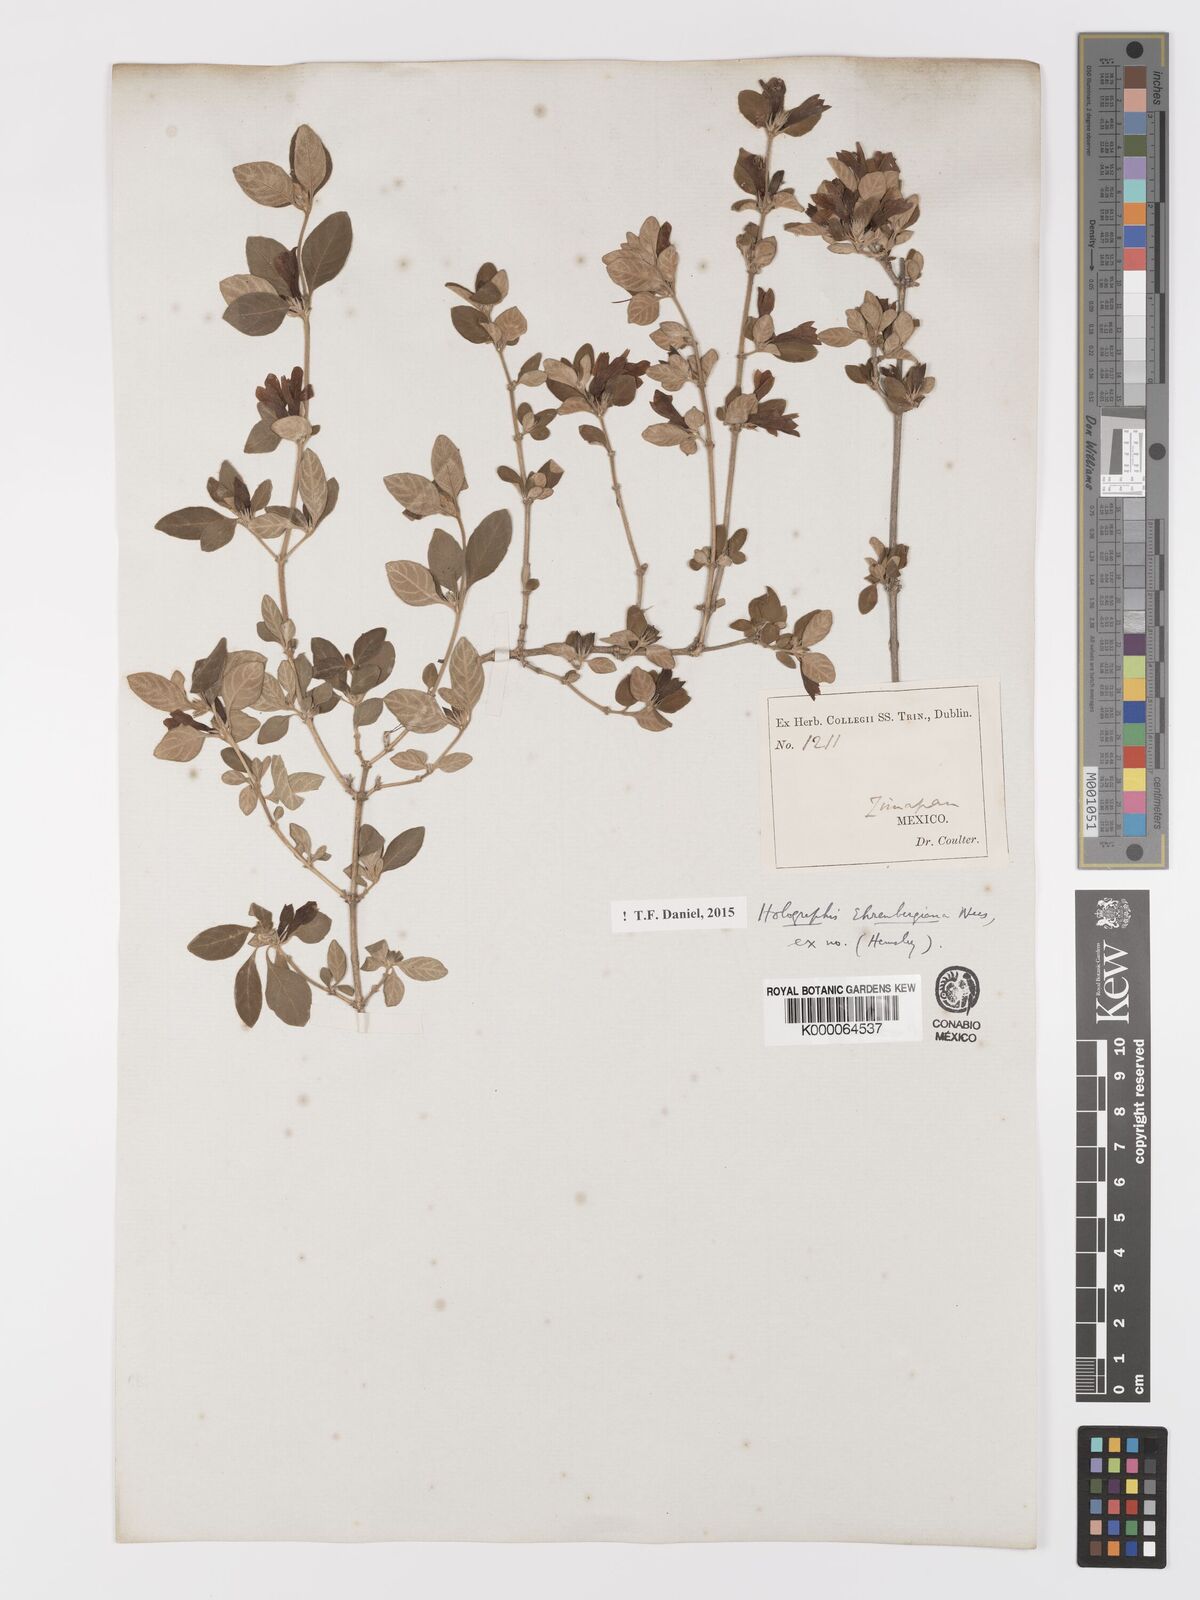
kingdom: Plantae
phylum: Tracheophyta
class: Magnoliopsida
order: Lamiales
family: Acanthaceae
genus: Holographis
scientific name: Holographis ehrenbergiana
